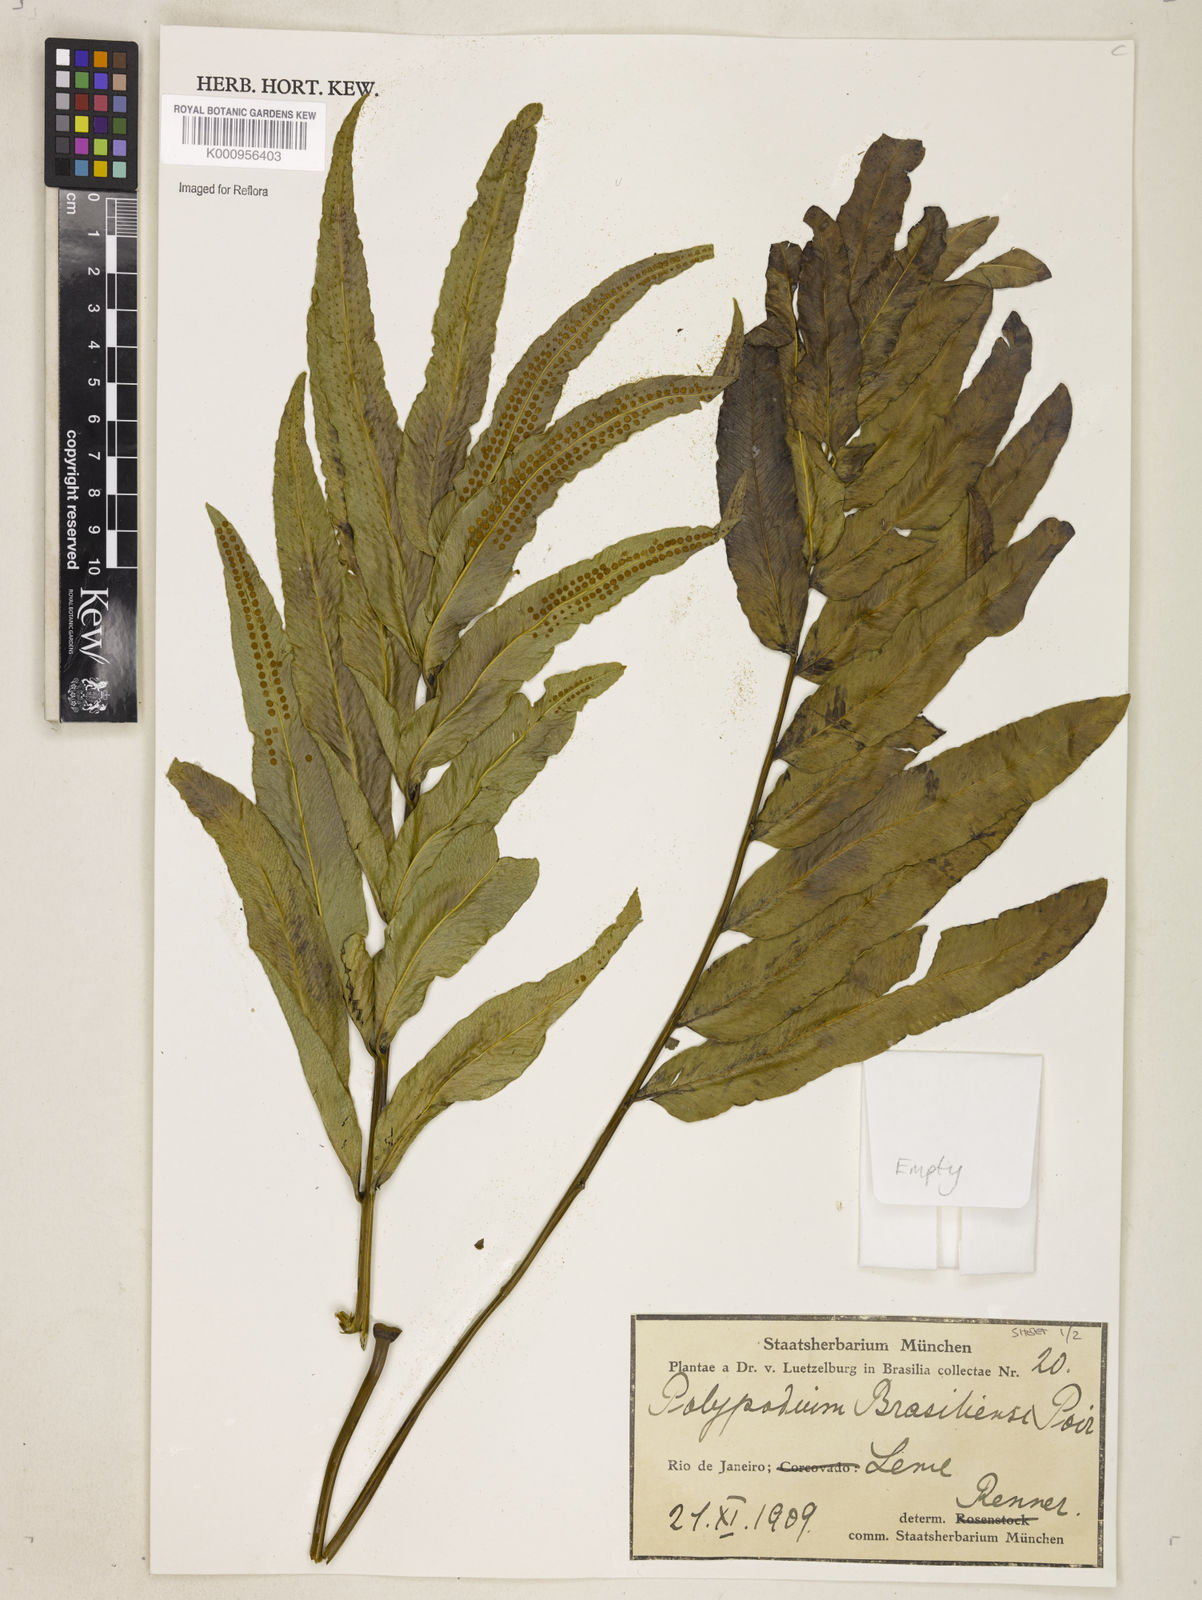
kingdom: Plantae
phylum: Tracheophyta
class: Polypodiopsida
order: Polypodiales
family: Polypodiaceae
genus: Serpocaulon
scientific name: Serpocaulon triseriale
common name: Angle-vein fern
